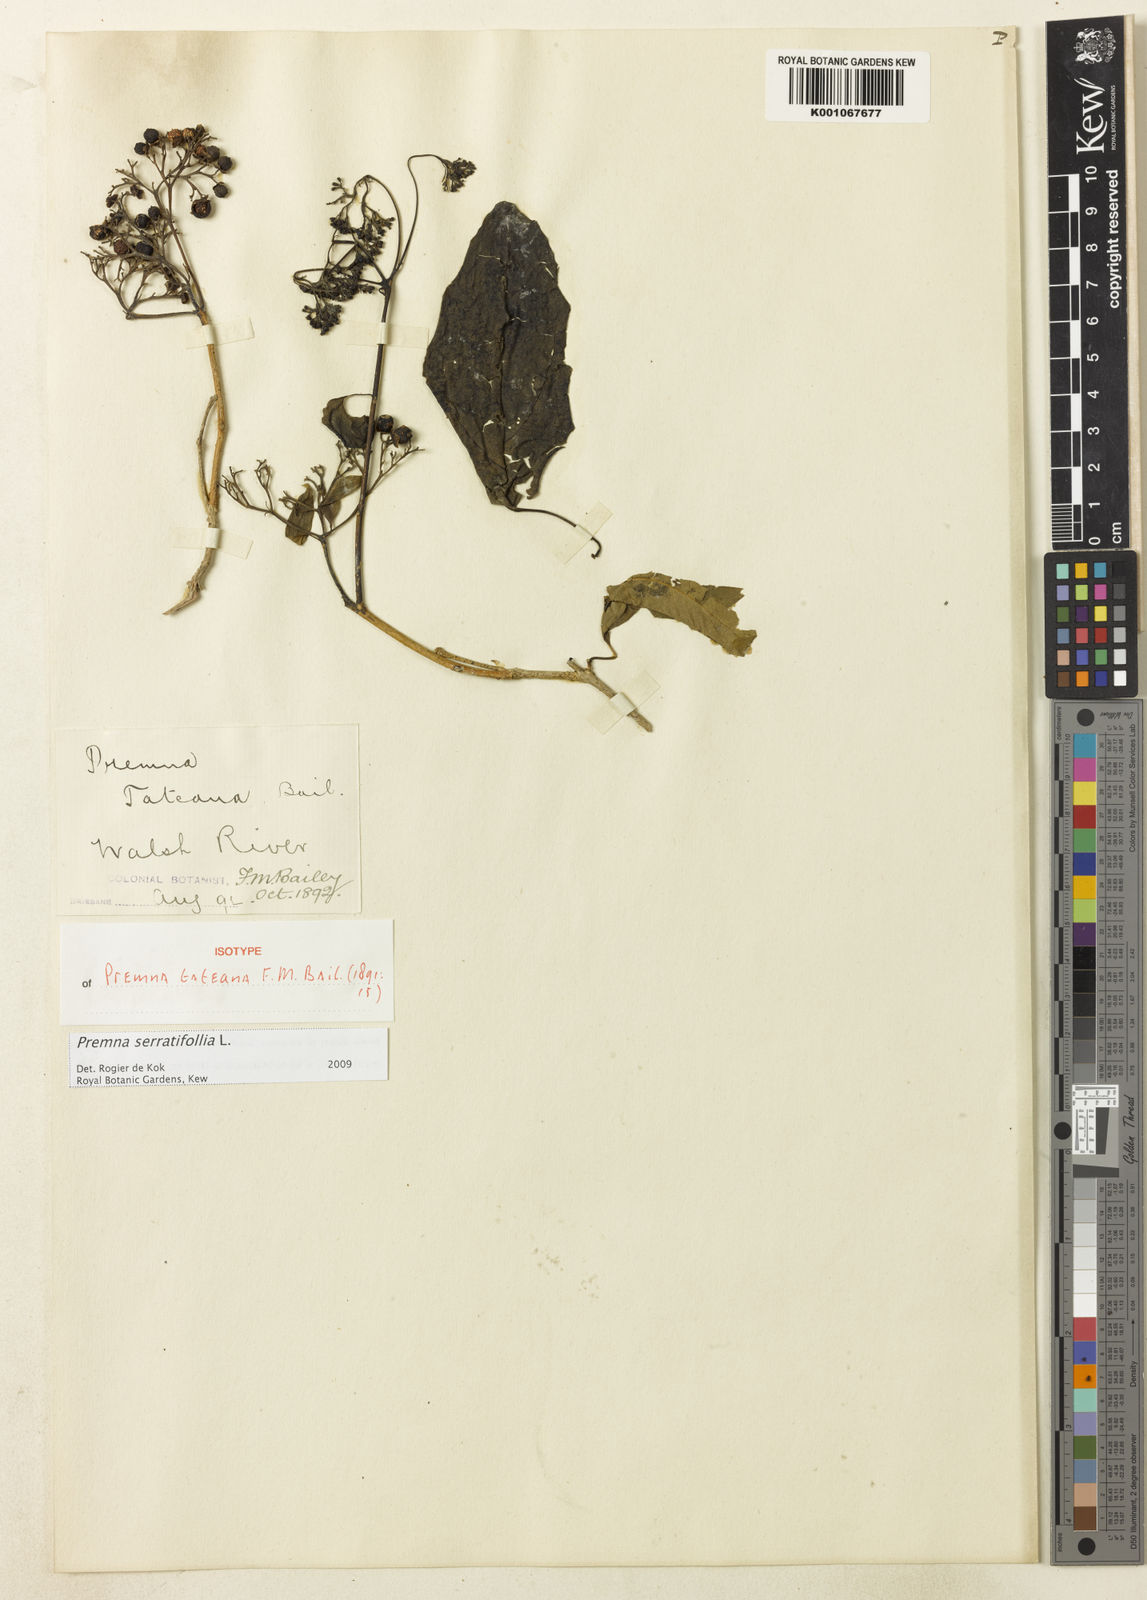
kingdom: Plantae
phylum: Tracheophyta
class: Magnoliopsida
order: Lamiales
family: Lamiaceae
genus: Premna
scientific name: Premna serratifolia
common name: Bastard guelder
